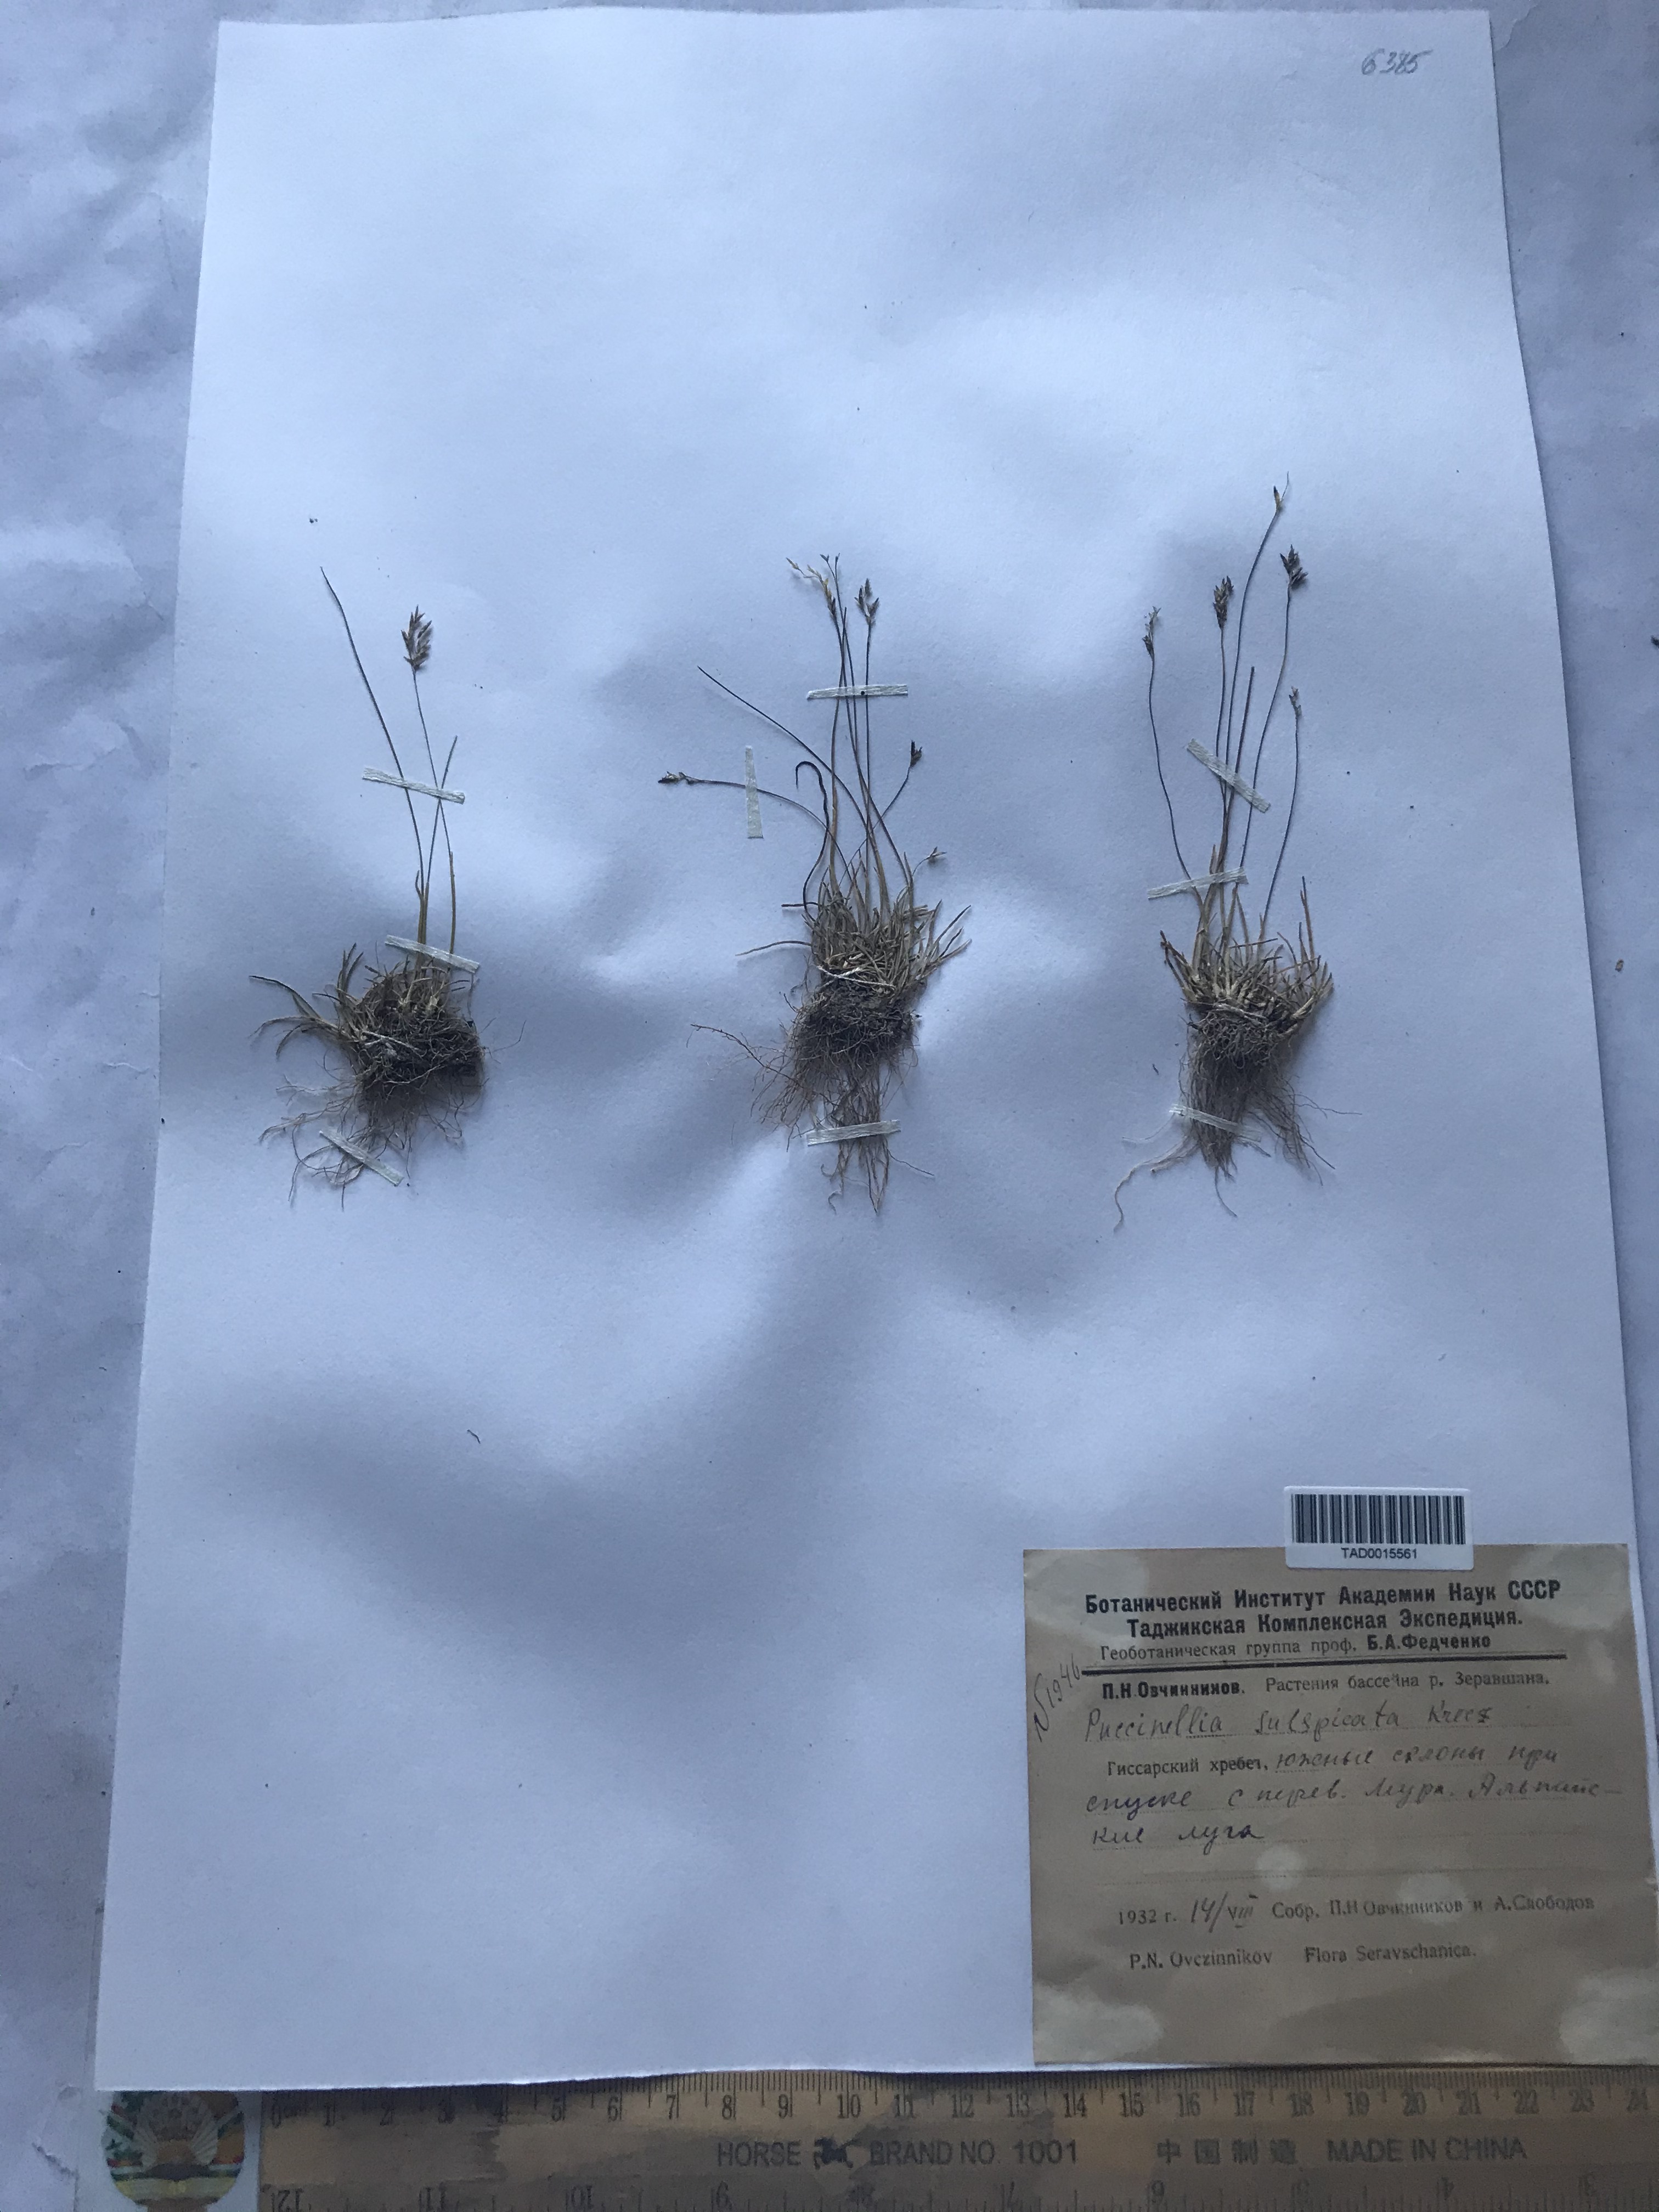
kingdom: Plantae
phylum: Tracheophyta
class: Liliopsida
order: Poales
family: Poaceae
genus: Puccinellia
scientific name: Puccinellia subspicata
